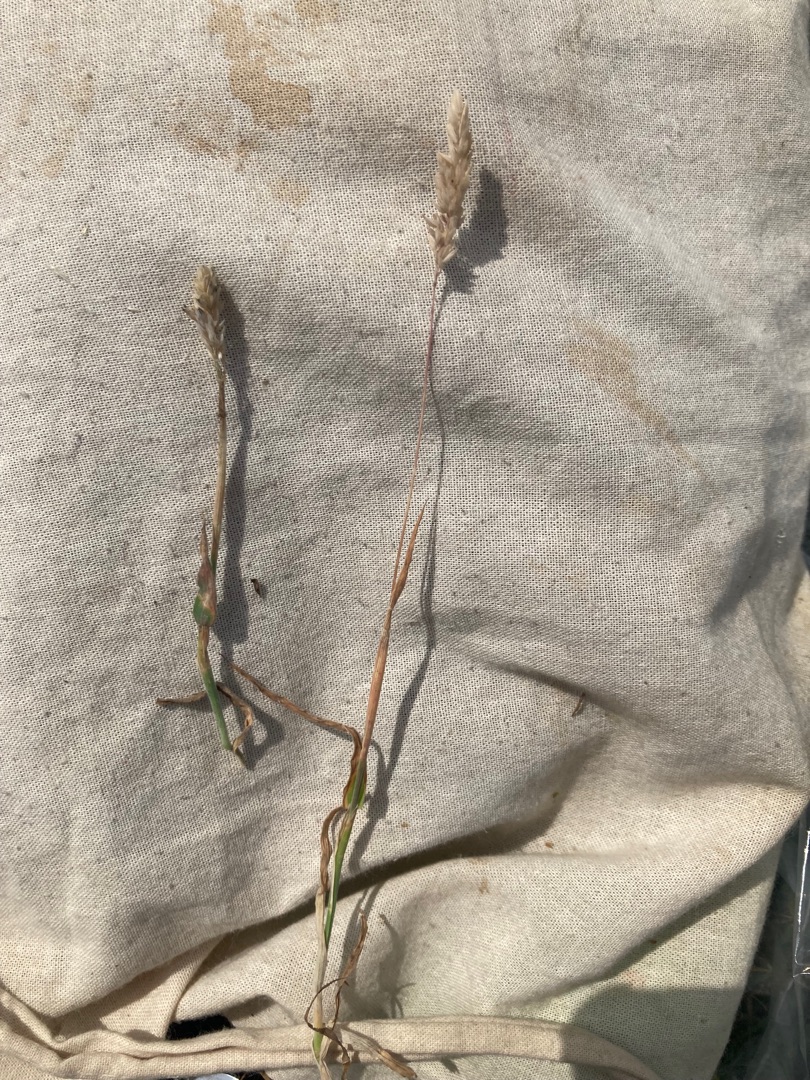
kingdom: Plantae
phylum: Tracheophyta
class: Liliopsida
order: Poales
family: Poaceae
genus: Holcus
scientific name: Holcus lanatus
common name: Fløjlsgræs
